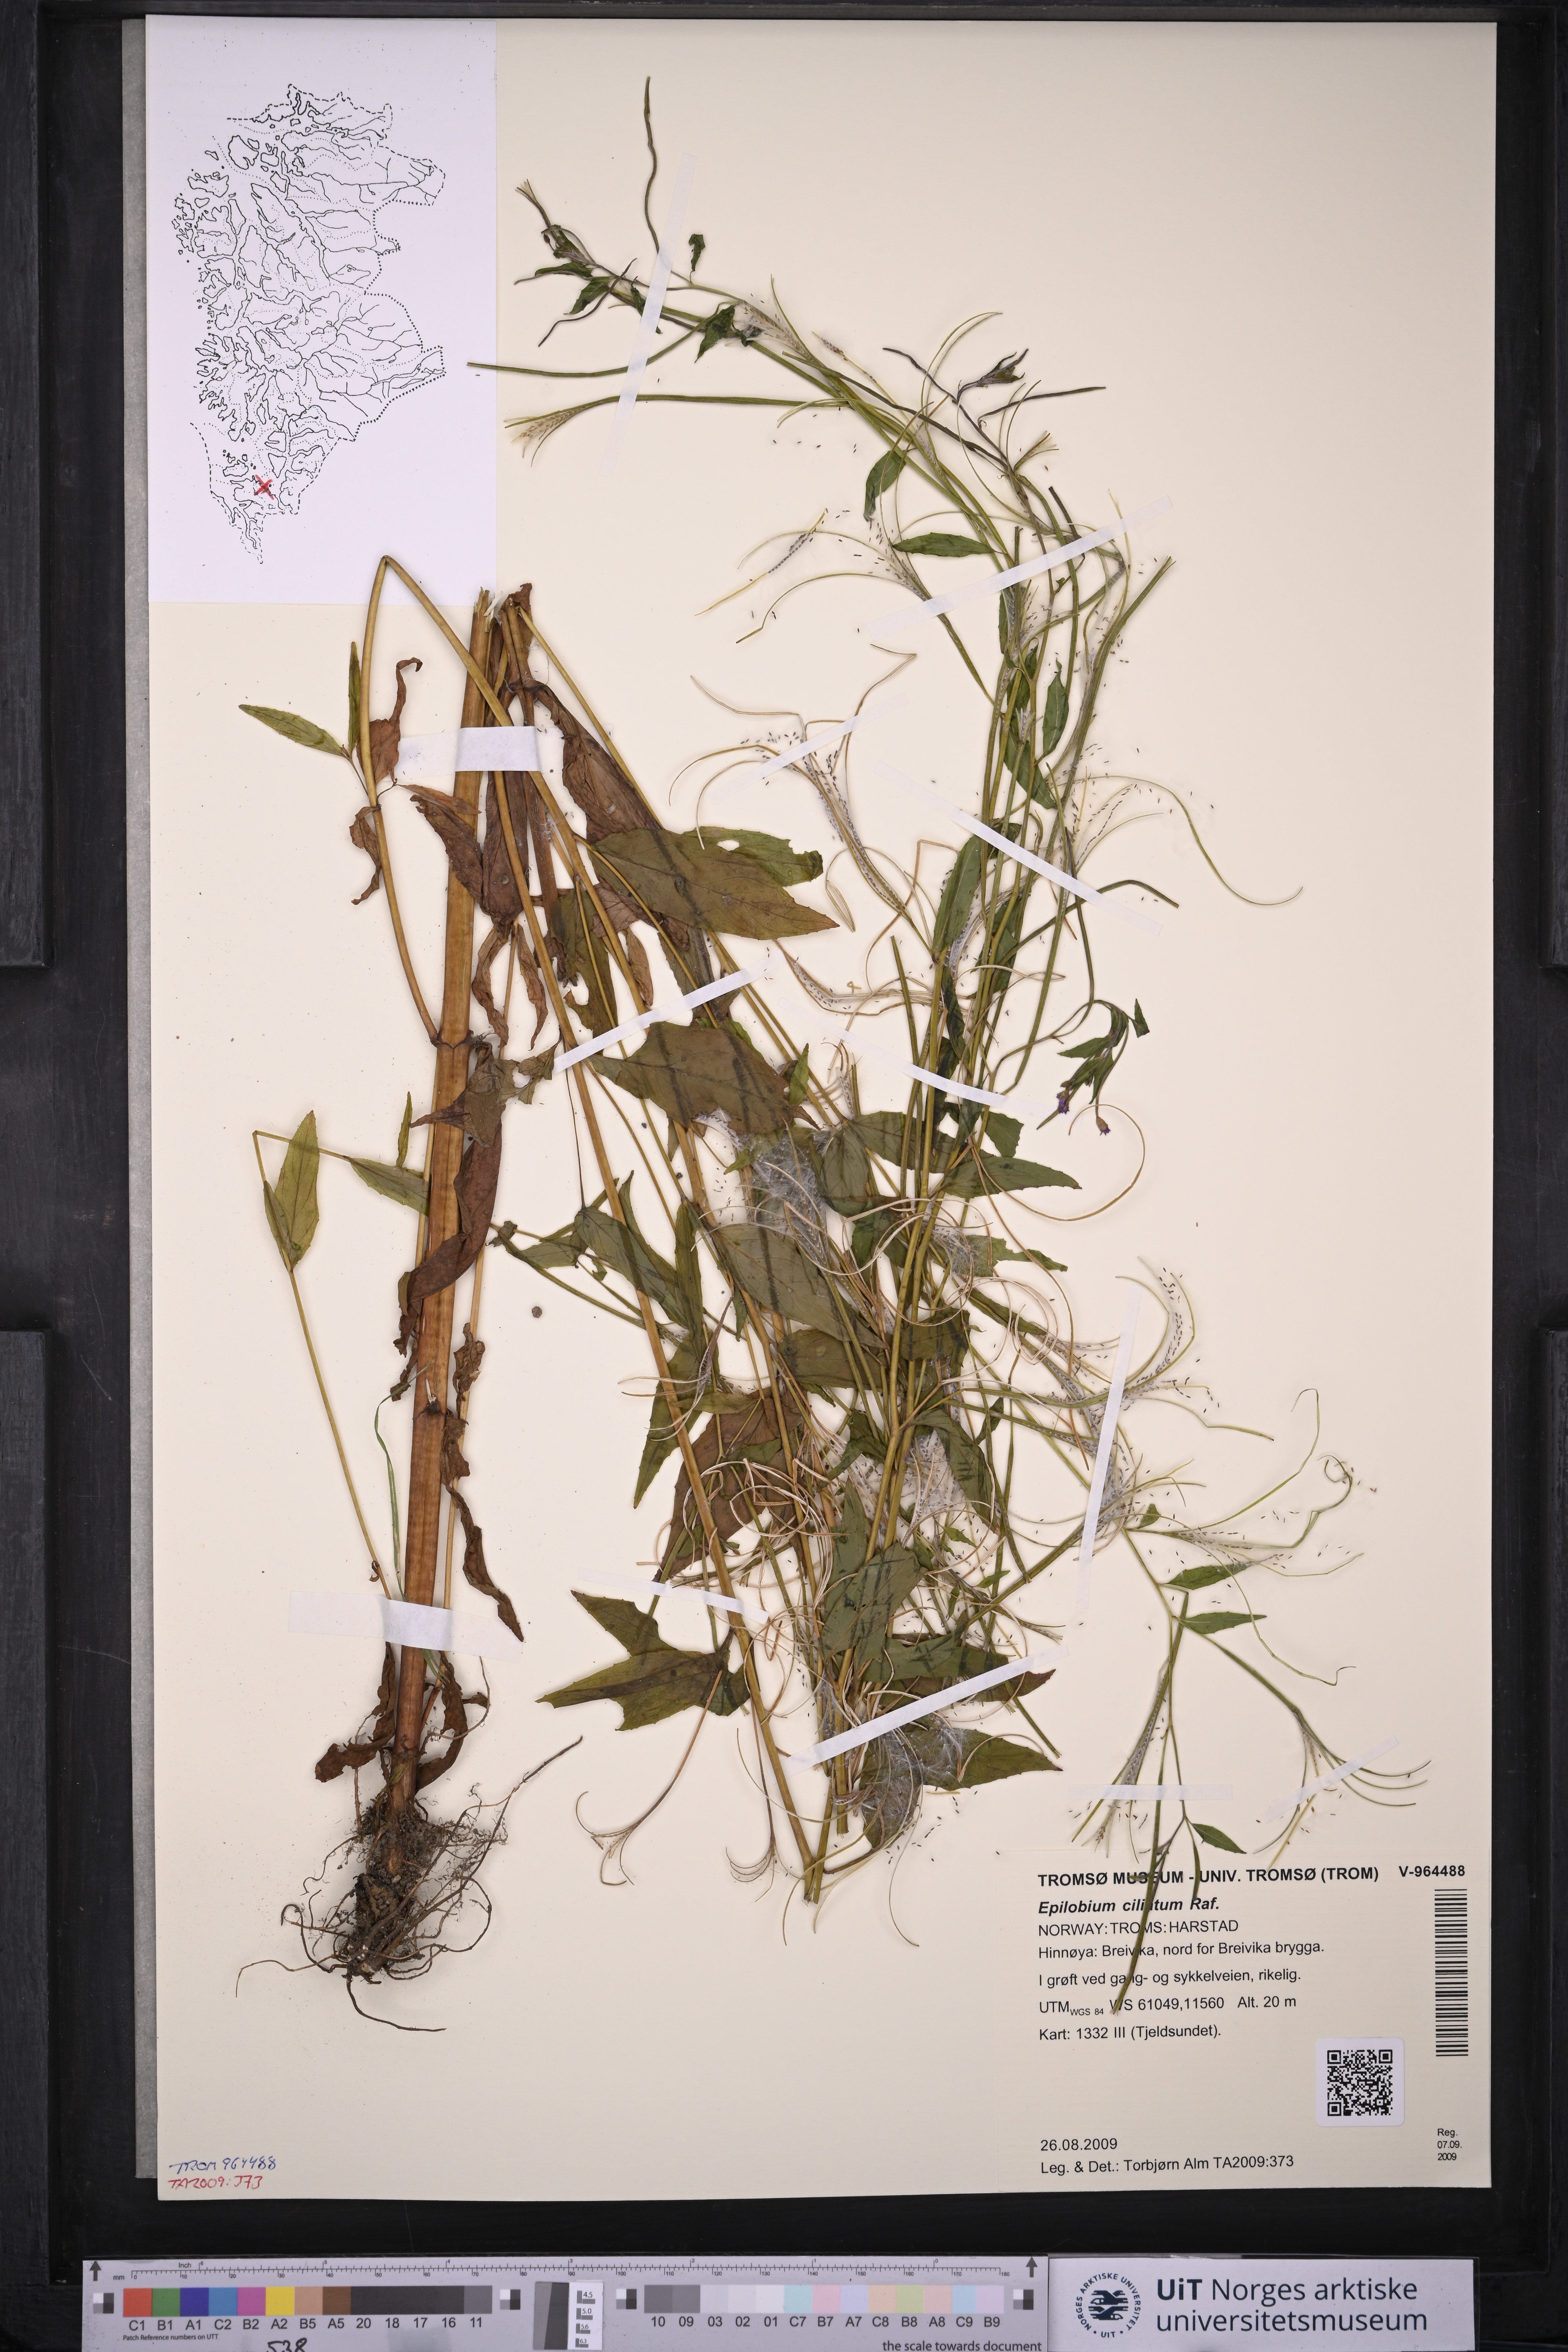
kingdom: Plantae
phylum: Tracheophyta
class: Magnoliopsida
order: Myrtales
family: Onagraceae
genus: Epilobium
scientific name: Epilobium ciliatum
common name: American willowherb
